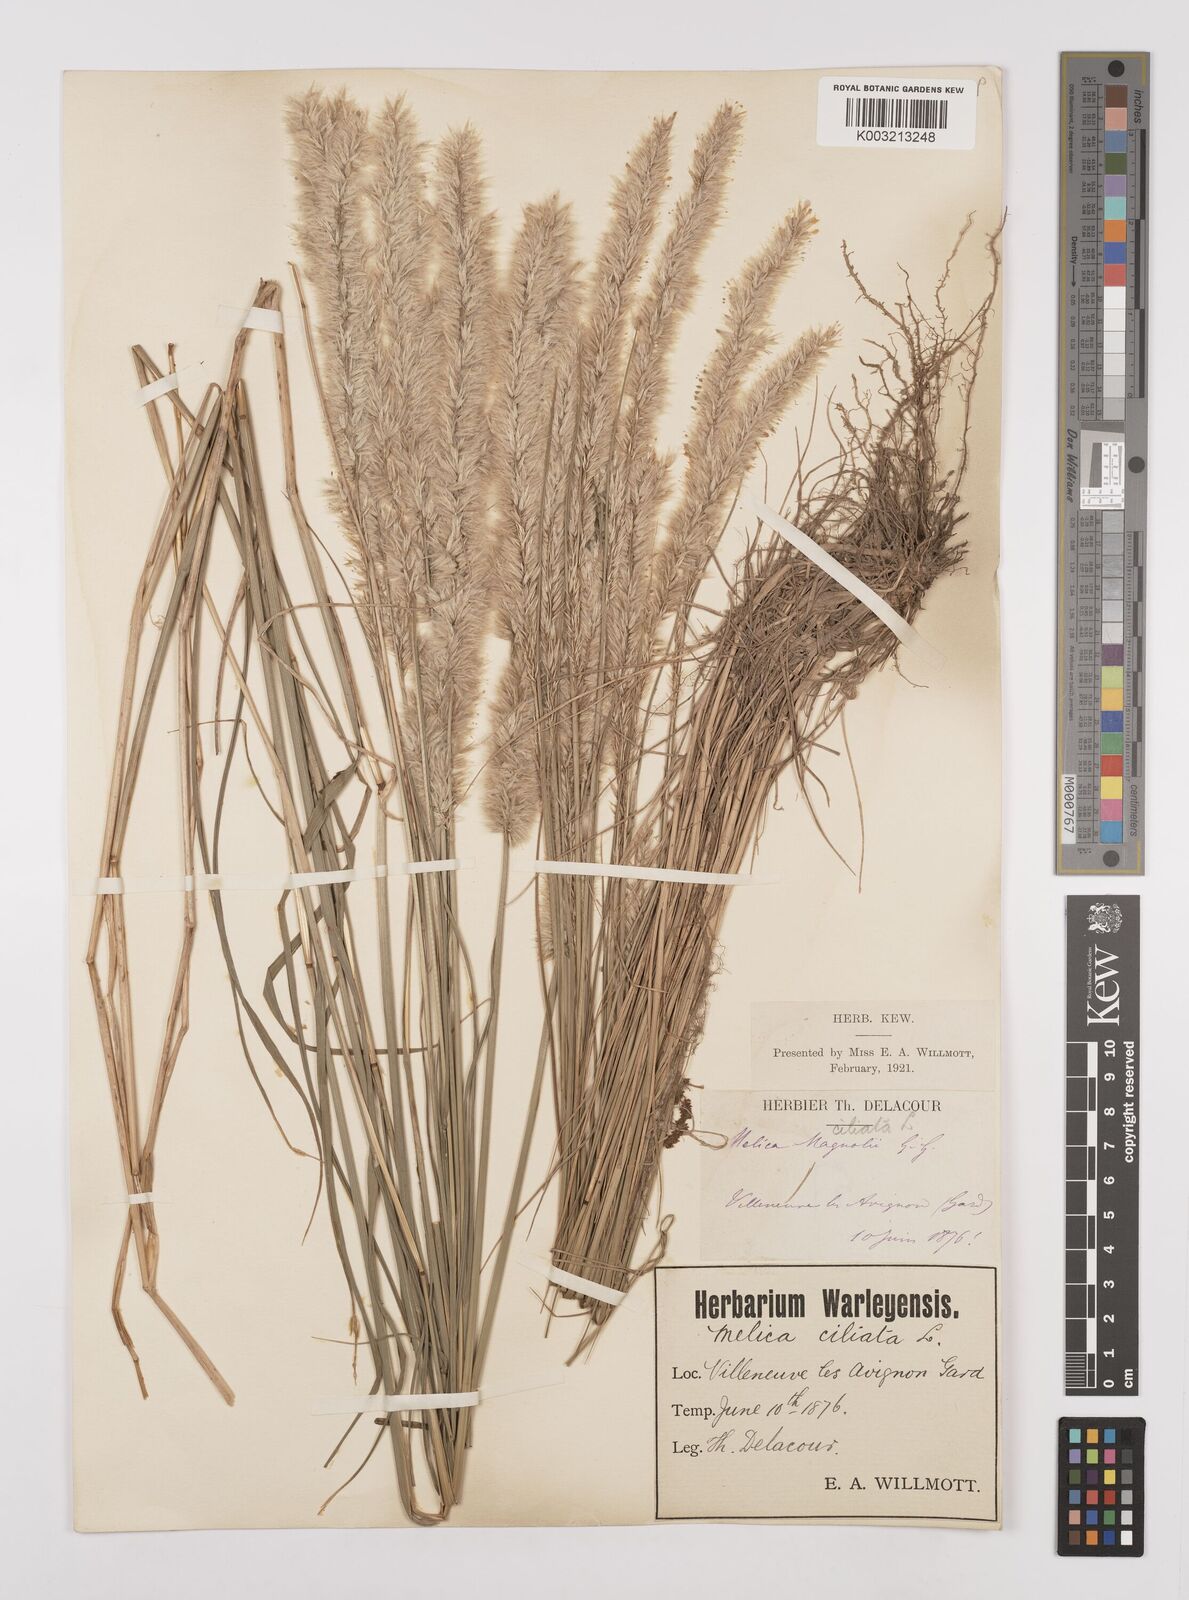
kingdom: Plantae
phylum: Tracheophyta
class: Liliopsida
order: Poales
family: Poaceae
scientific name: Poaceae
